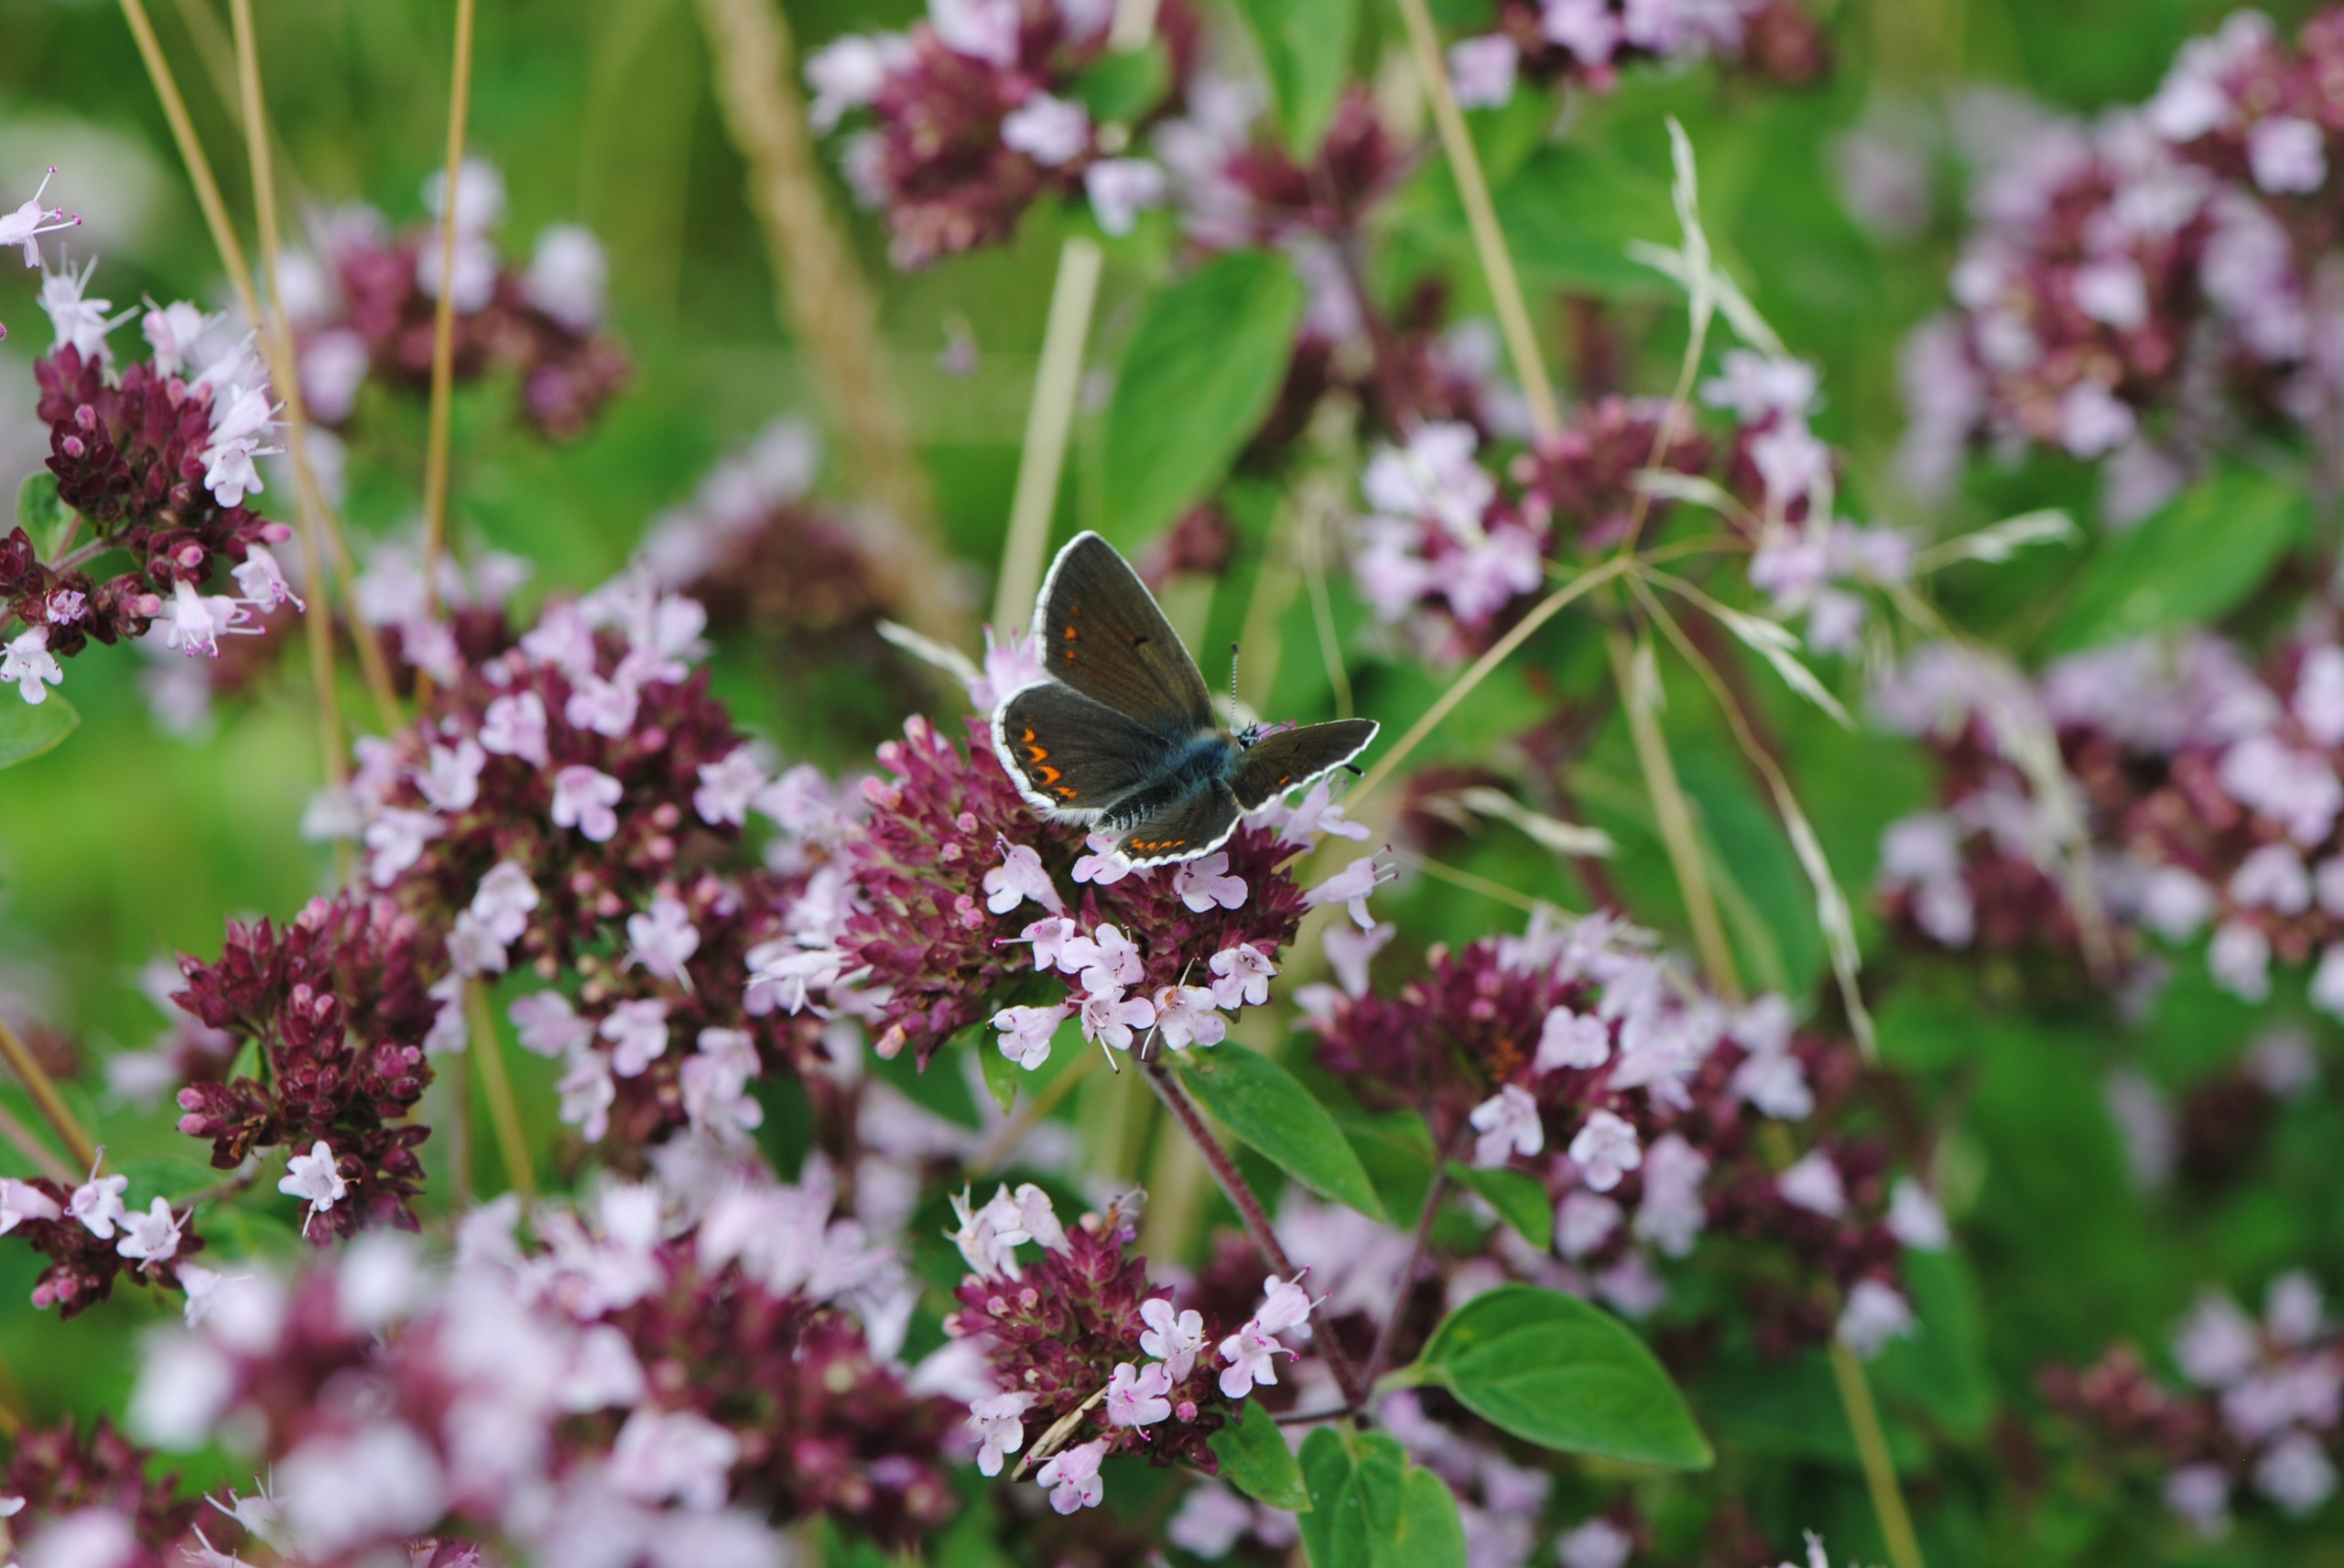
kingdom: Animalia
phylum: Arthropoda
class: Insecta
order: Lepidoptera
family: Lycaenidae
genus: Aricia
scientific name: Aricia agestis
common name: Rødplettet blåfugl
